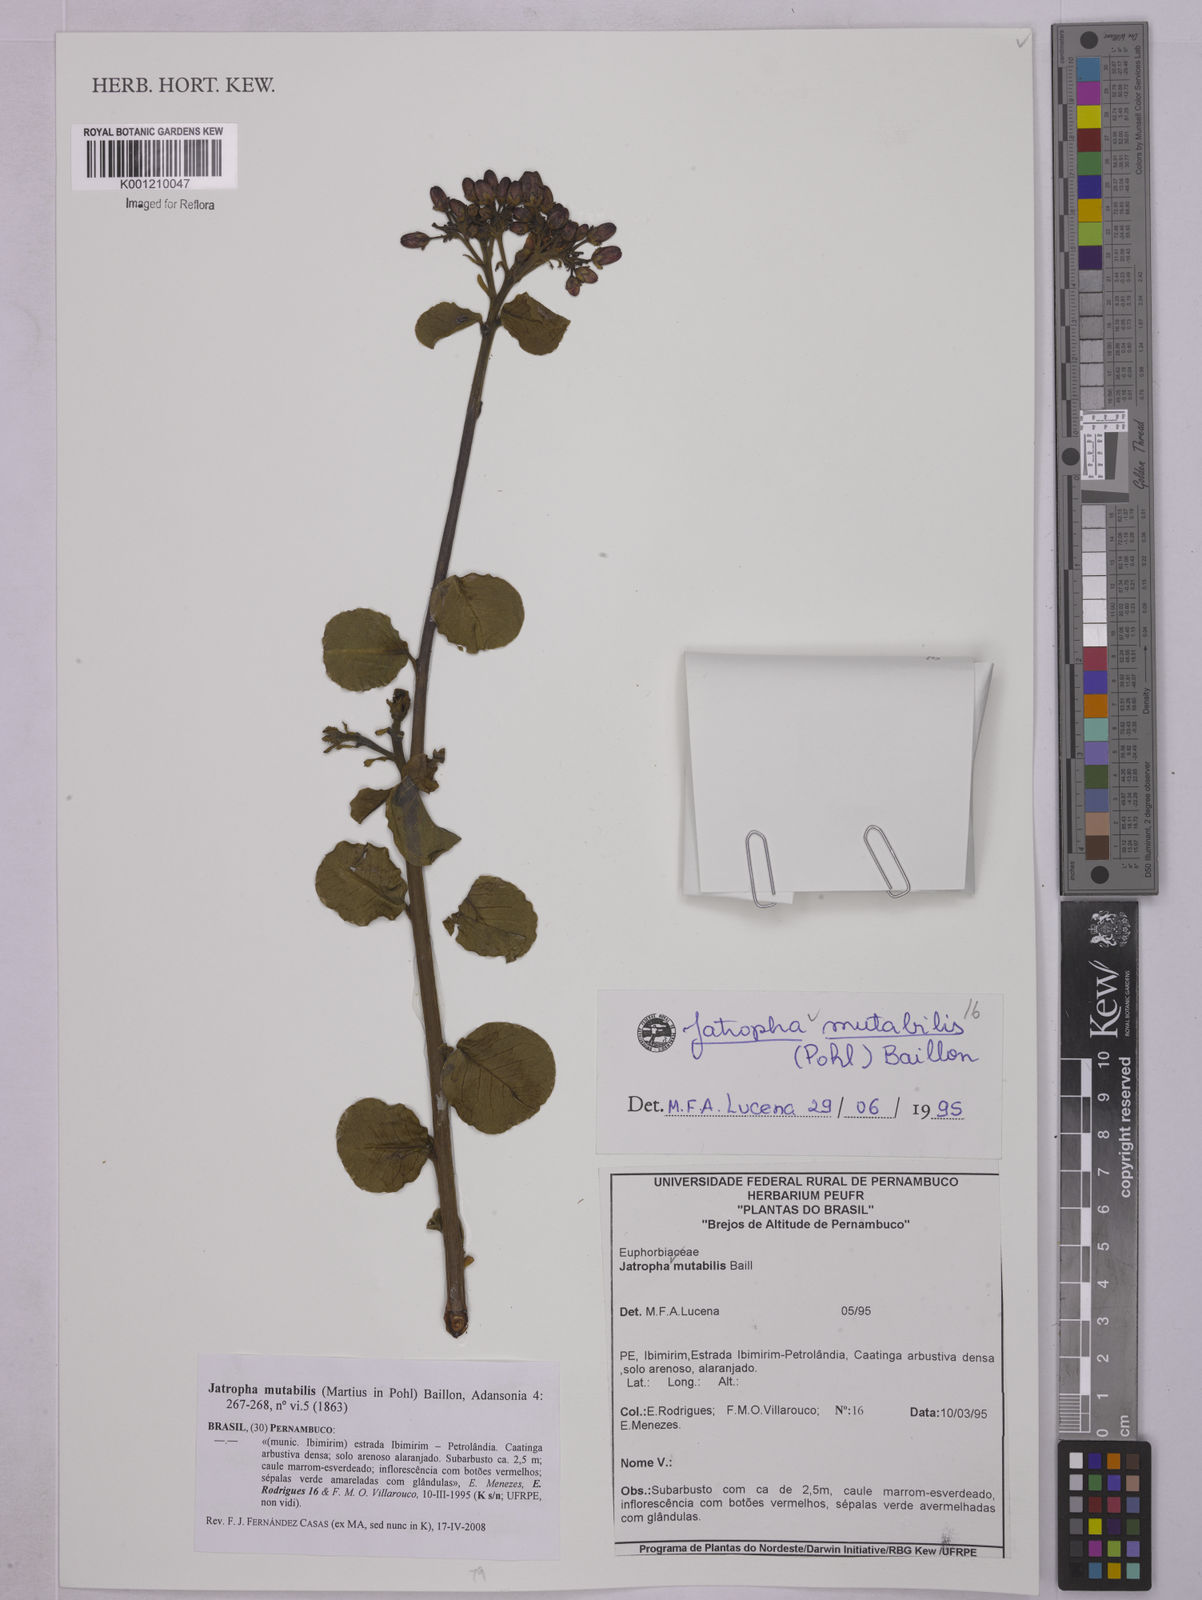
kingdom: Plantae
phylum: Tracheophyta
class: Magnoliopsida
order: Malpighiales
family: Euphorbiaceae
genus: Jatropha
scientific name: Jatropha mutabilis
